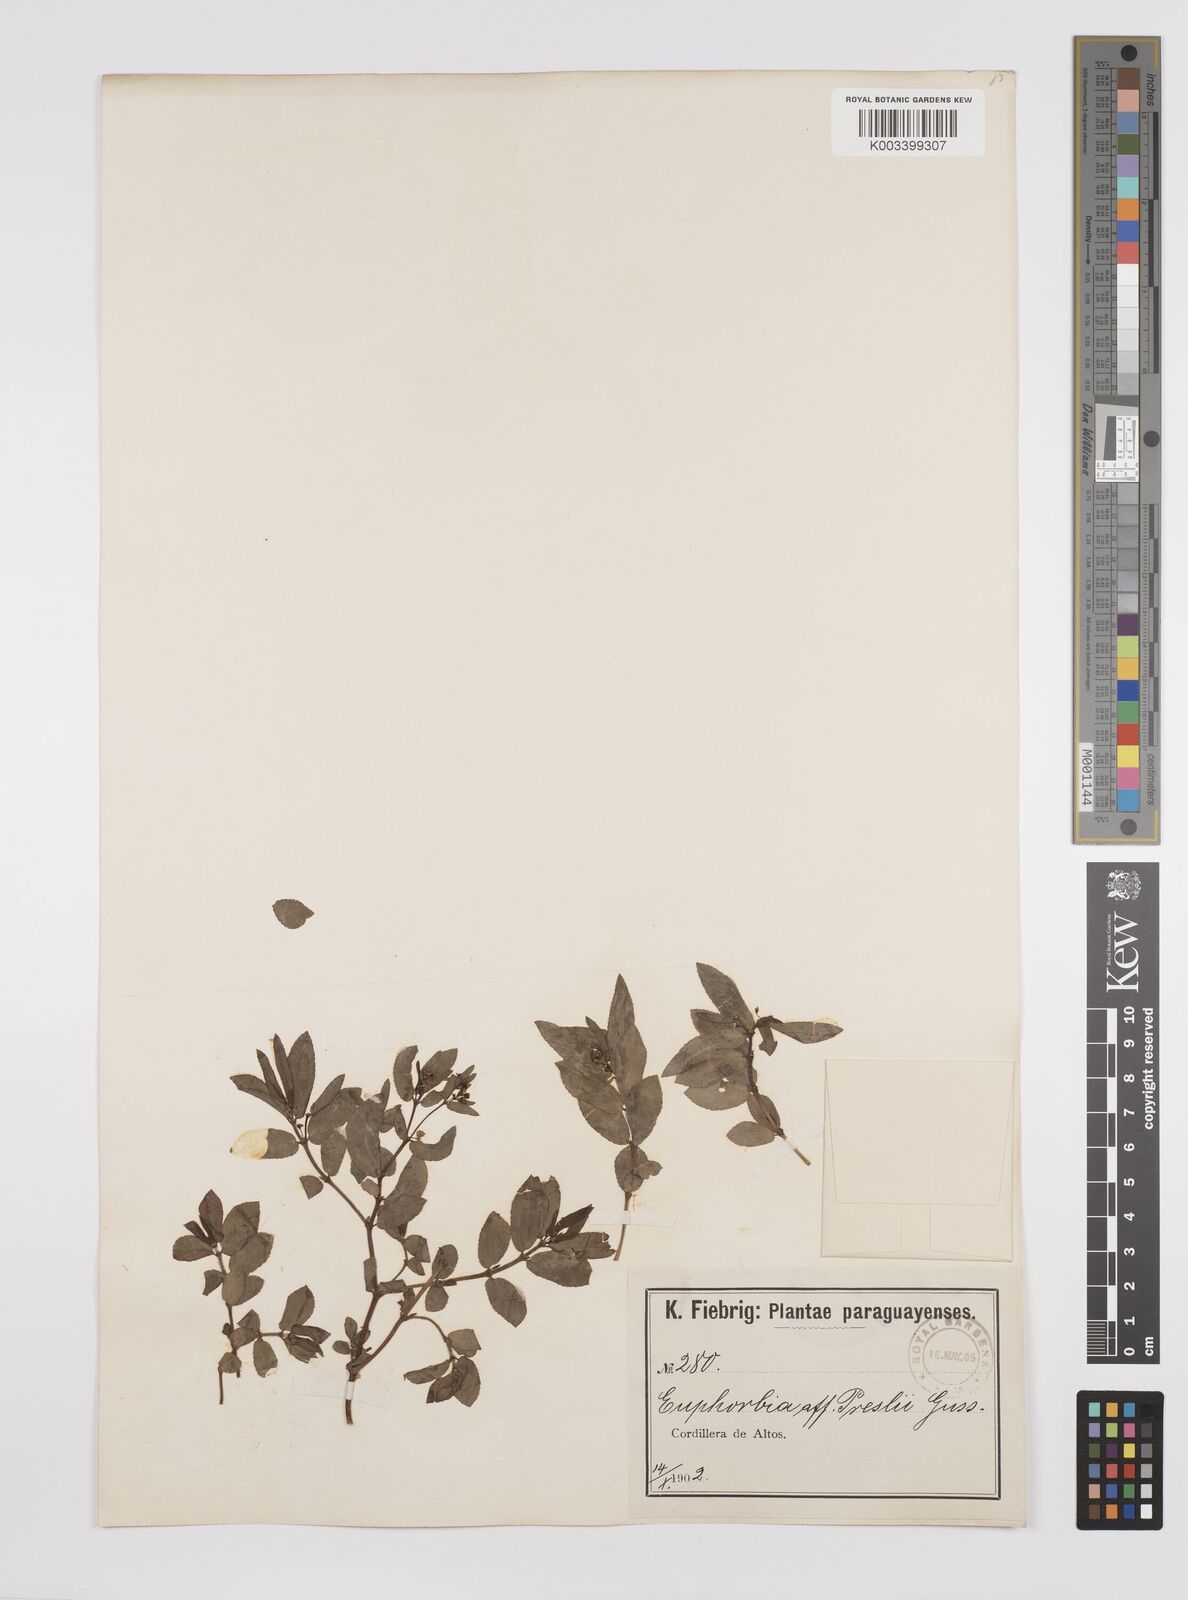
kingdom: Plantae
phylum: Tracheophyta
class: Magnoliopsida
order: Malpighiales
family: Euphorbiaceae
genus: Euphorbia
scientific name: Euphorbia
